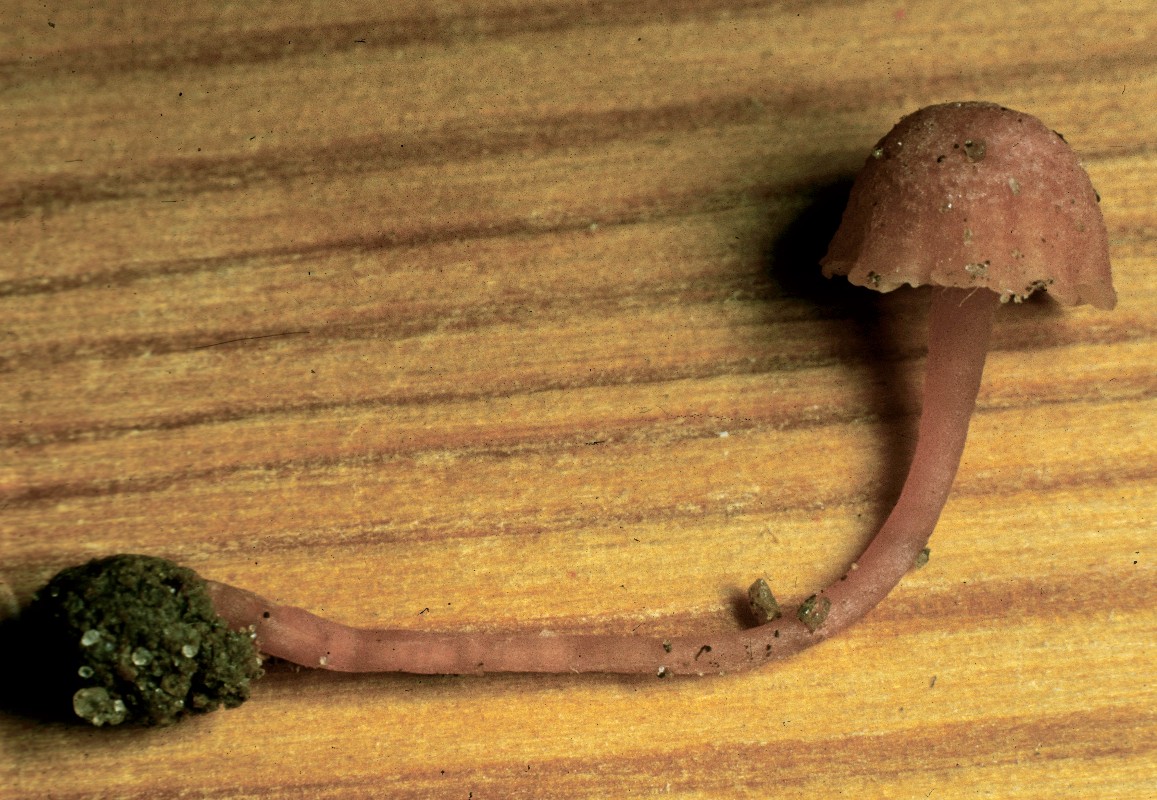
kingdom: Fungi
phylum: Basidiomycota
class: Agaricomycetes
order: Agaricales
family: Hygrophoraceae
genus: Chromosera
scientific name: Chromosera viola
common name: viol-vokshat
